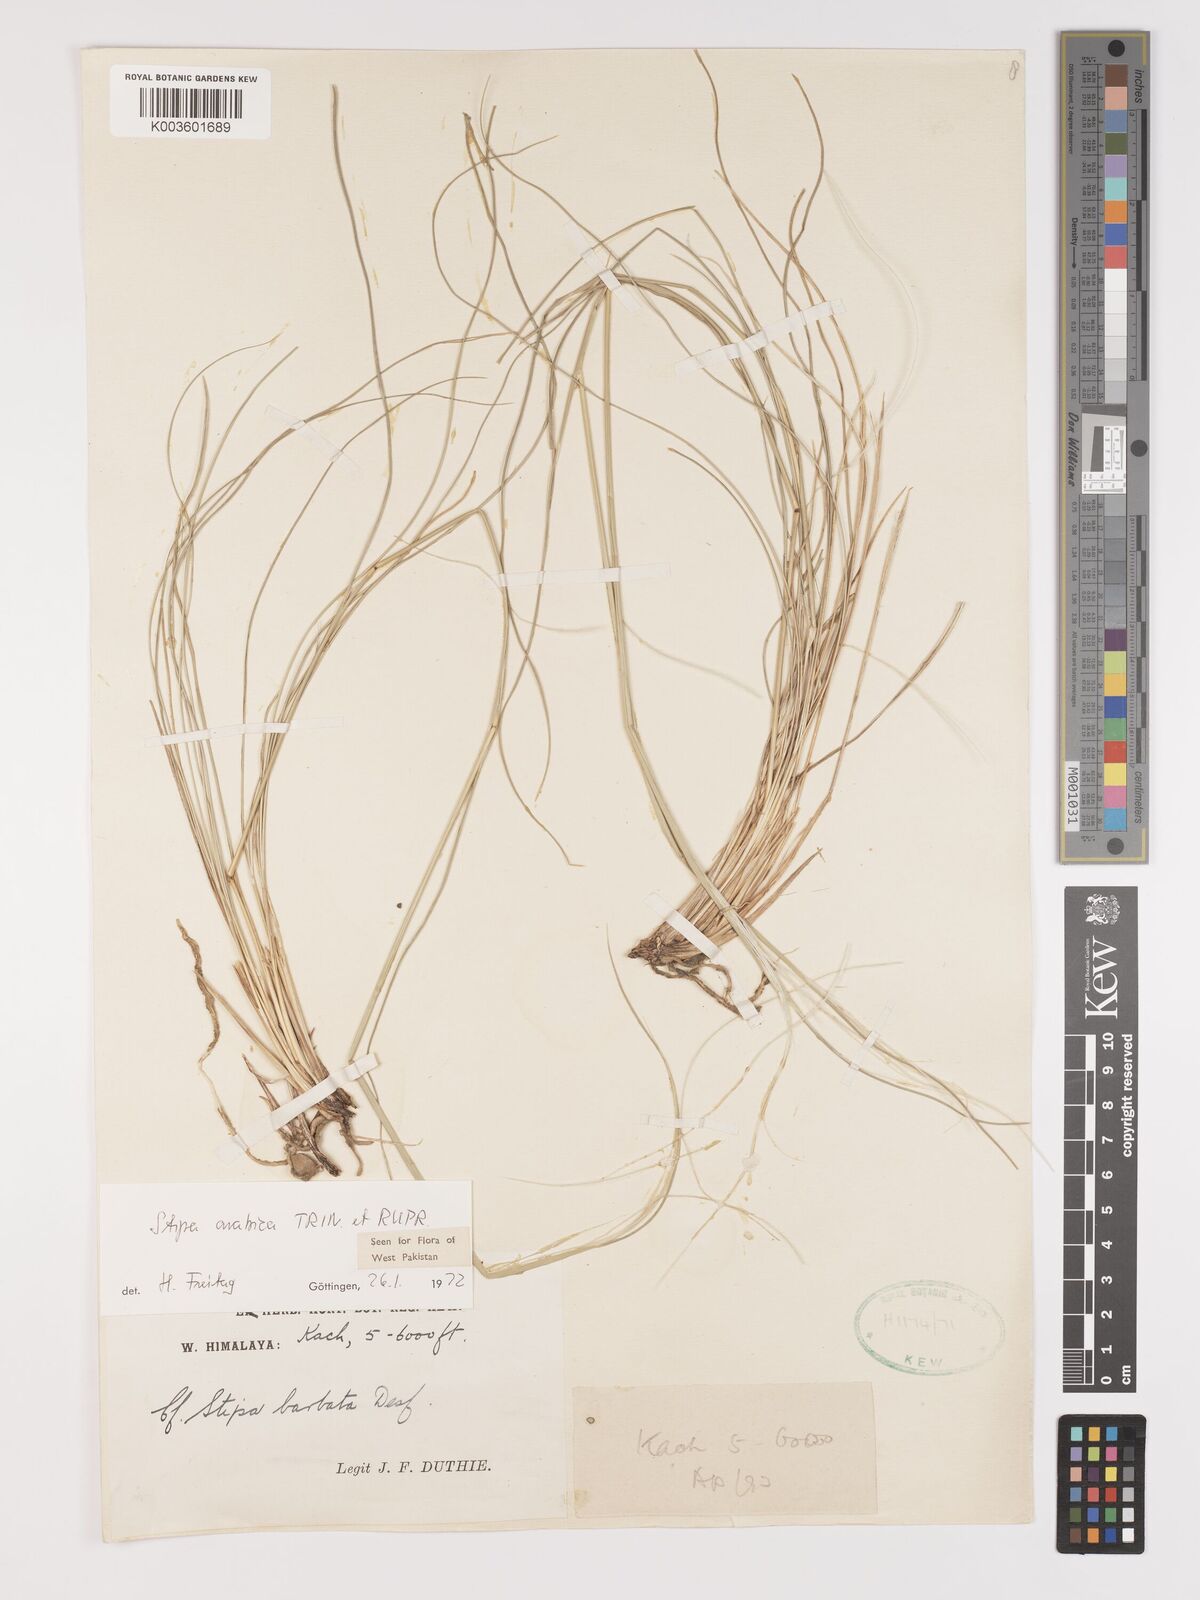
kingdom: Plantae
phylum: Tracheophyta
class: Liliopsida
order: Poales
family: Poaceae
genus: Stipa
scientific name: Stipa arabica
